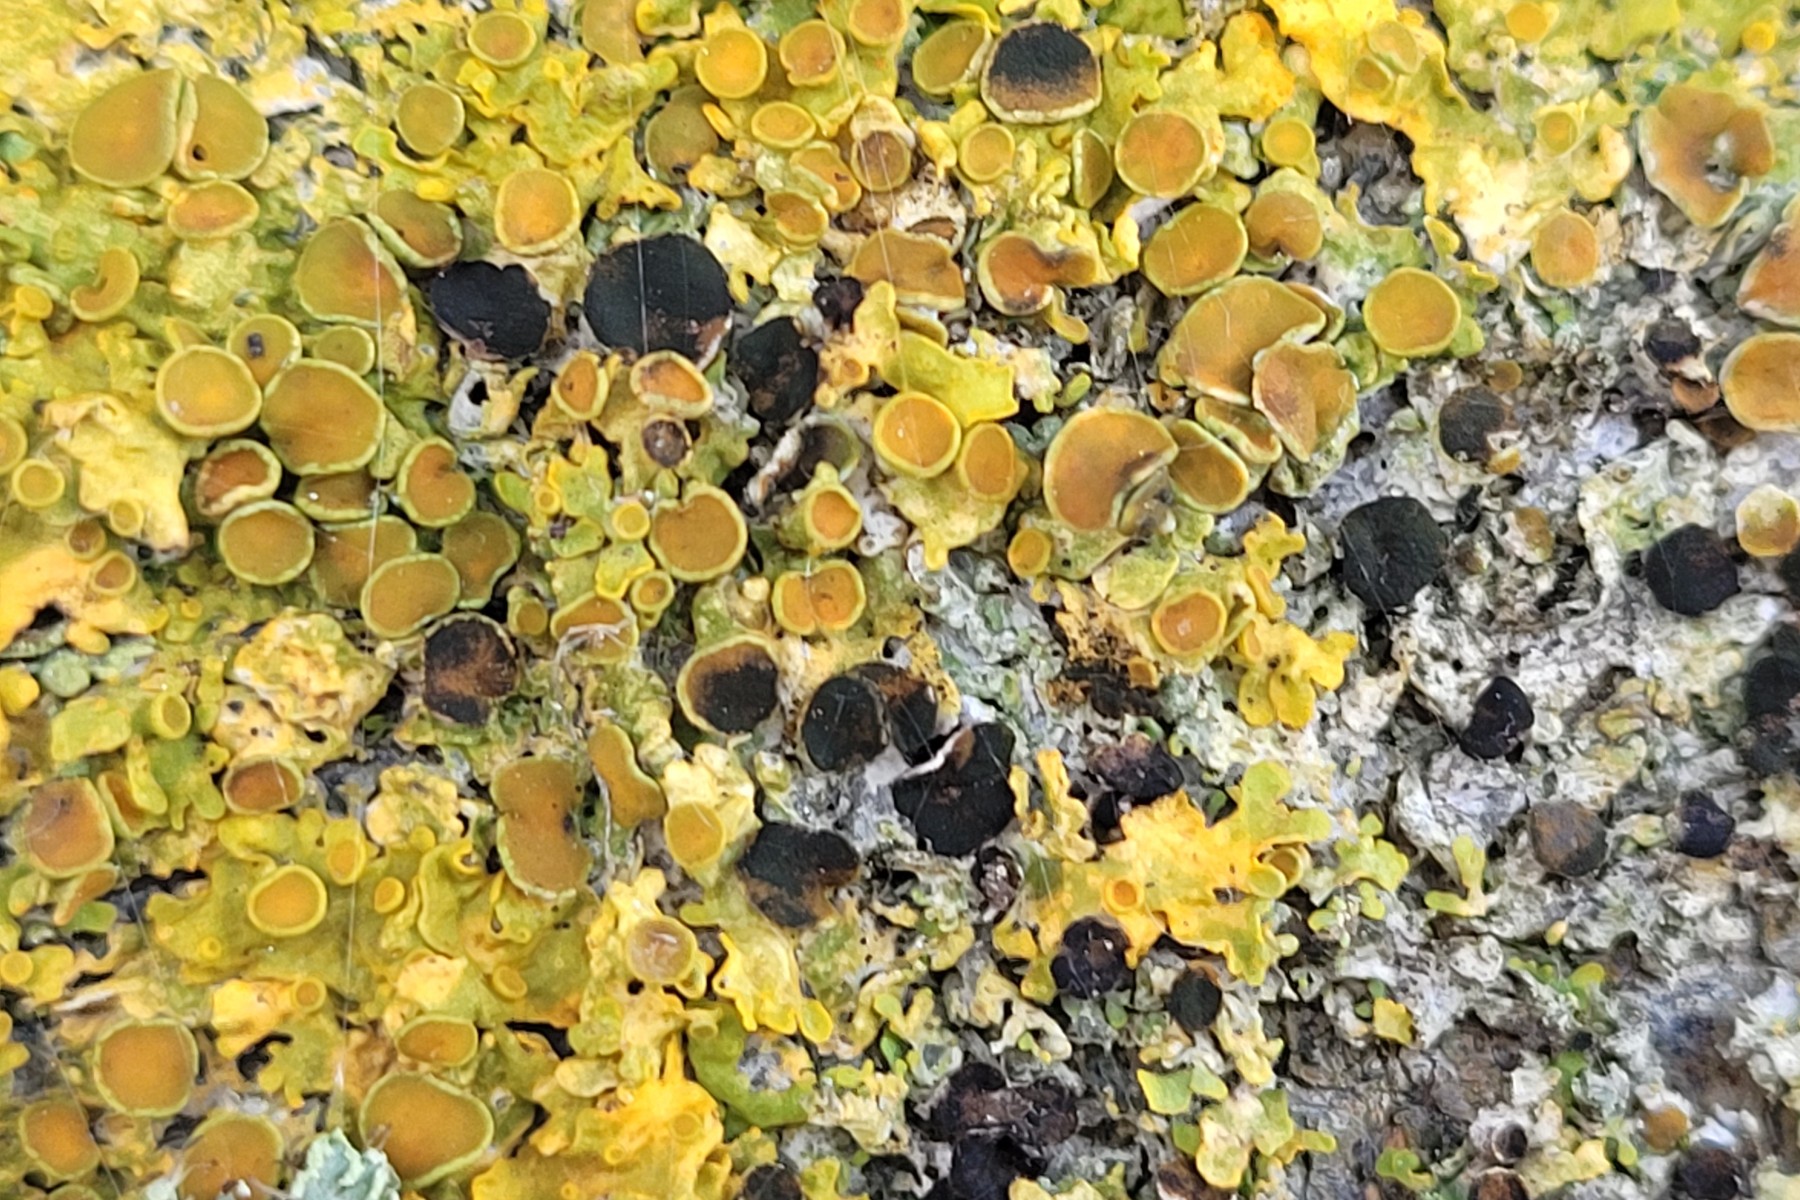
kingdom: Fungi
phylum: Ascomycota
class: Dothideomycetes
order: Mycosphaerellales
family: Teratosphaeriaceae
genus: Xanthoriicola
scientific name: Xanthoriicola physciae
